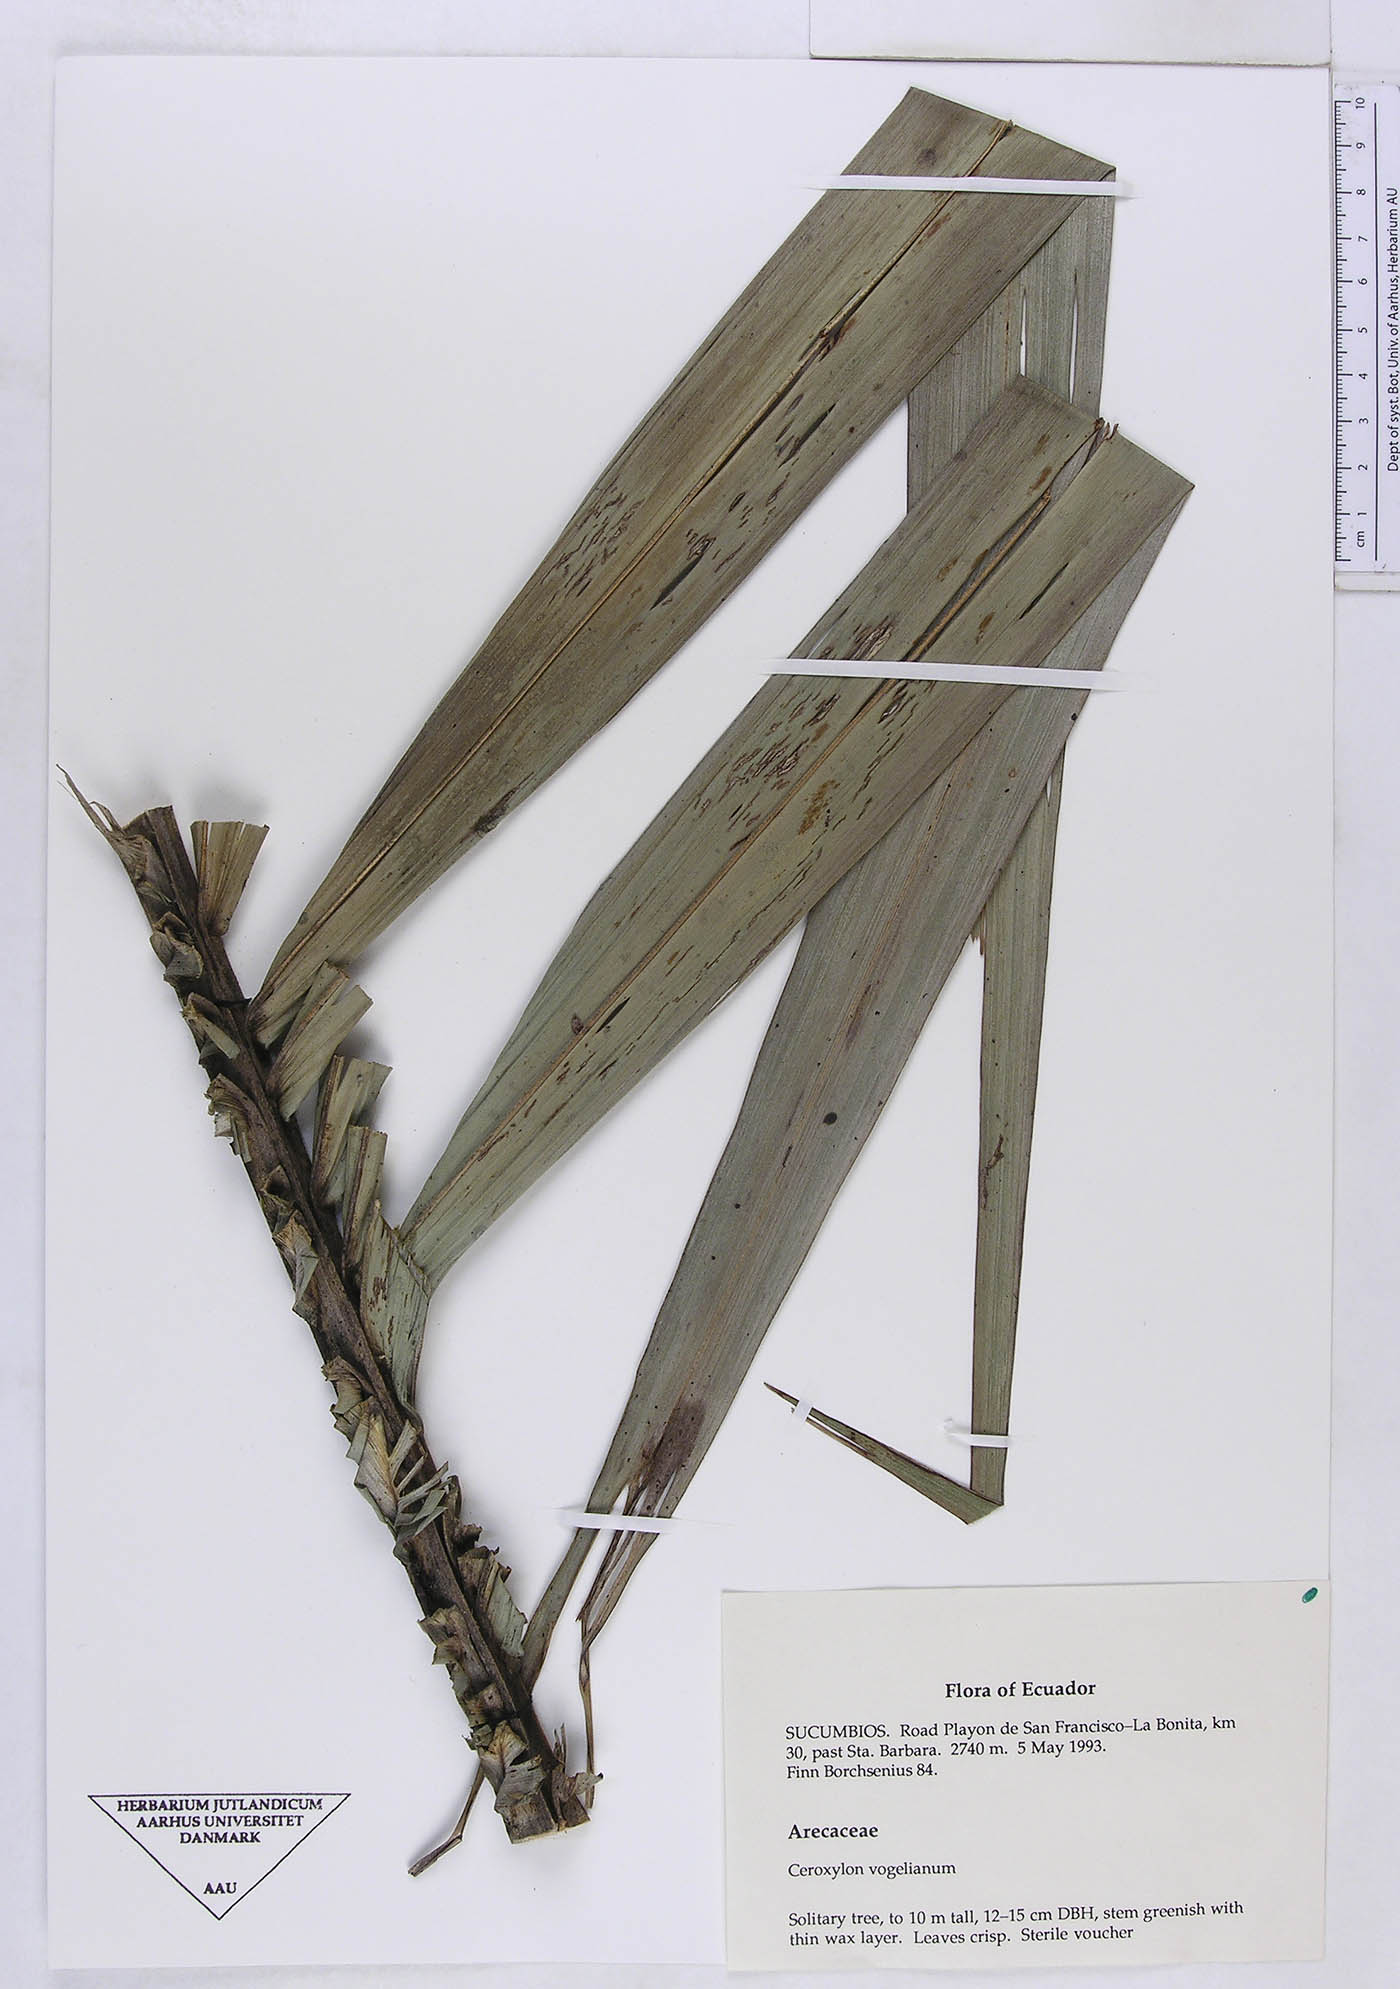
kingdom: Plantae
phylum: Tracheophyta
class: Liliopsida
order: Arecales
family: Arecaceae
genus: Ceroxylon
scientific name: Ceroxylon vogelianum
